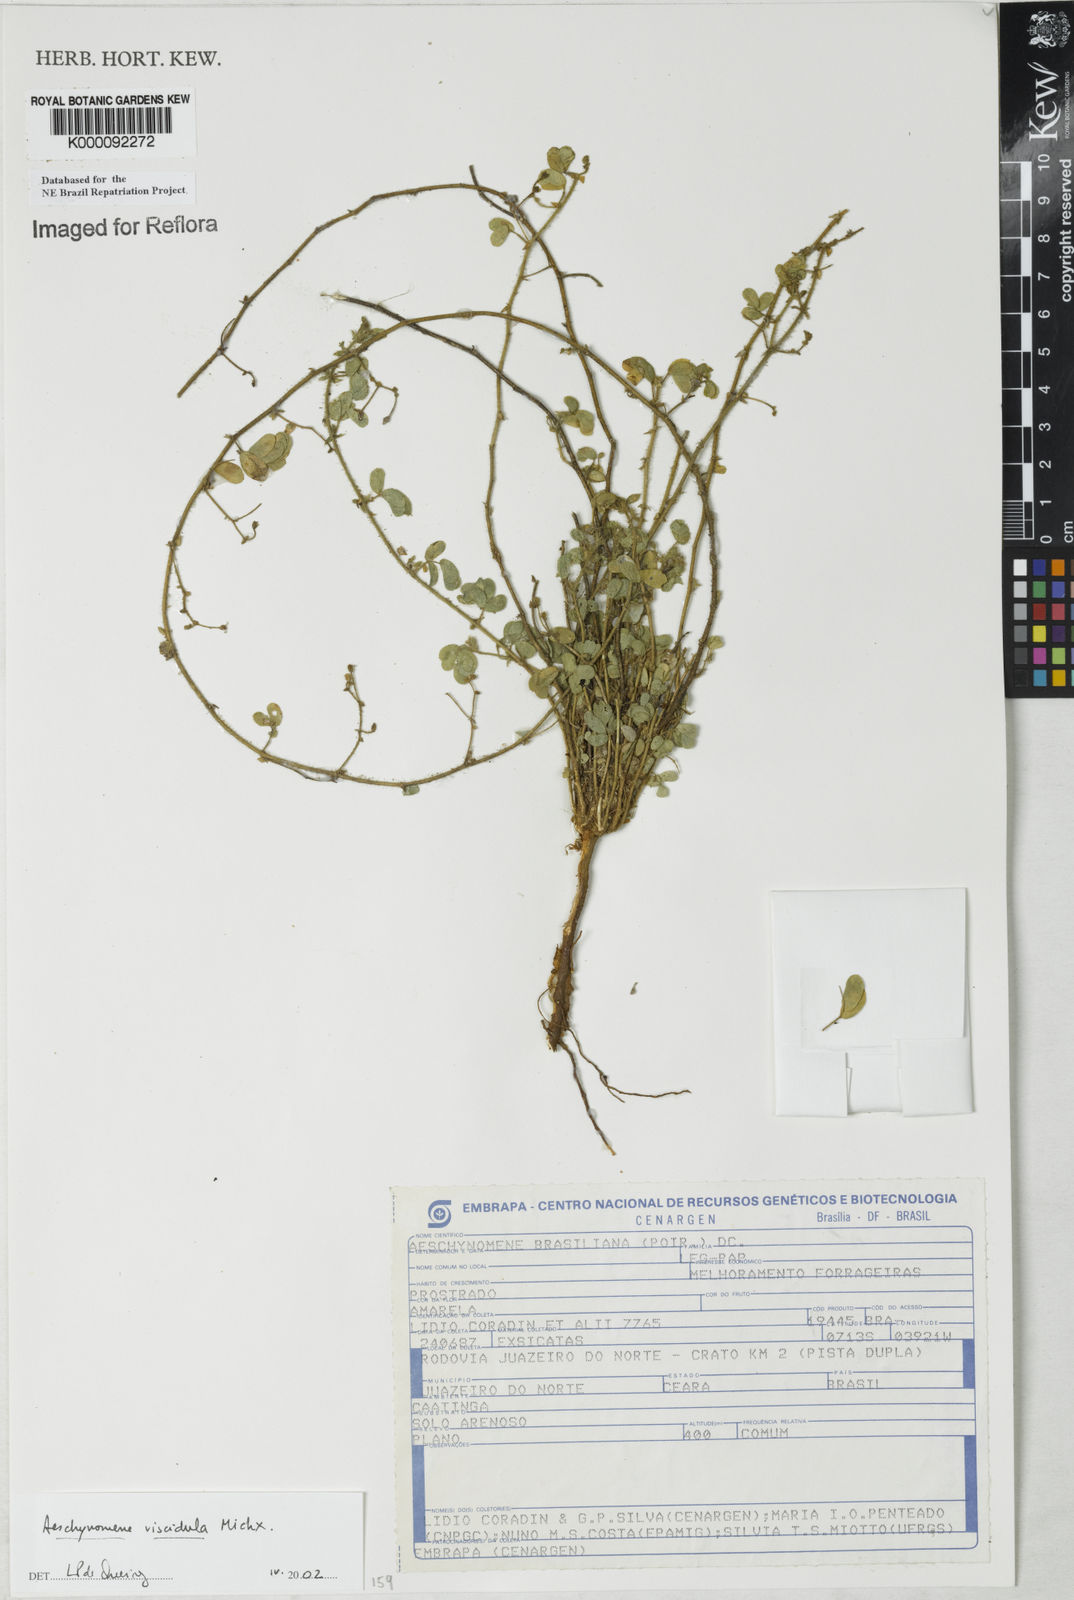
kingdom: Plantae
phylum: Tracheophyta
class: Magnoliopsida
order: Fabales
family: Fabaceae
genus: Ctenodon
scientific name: Ctenodon viscidulus
